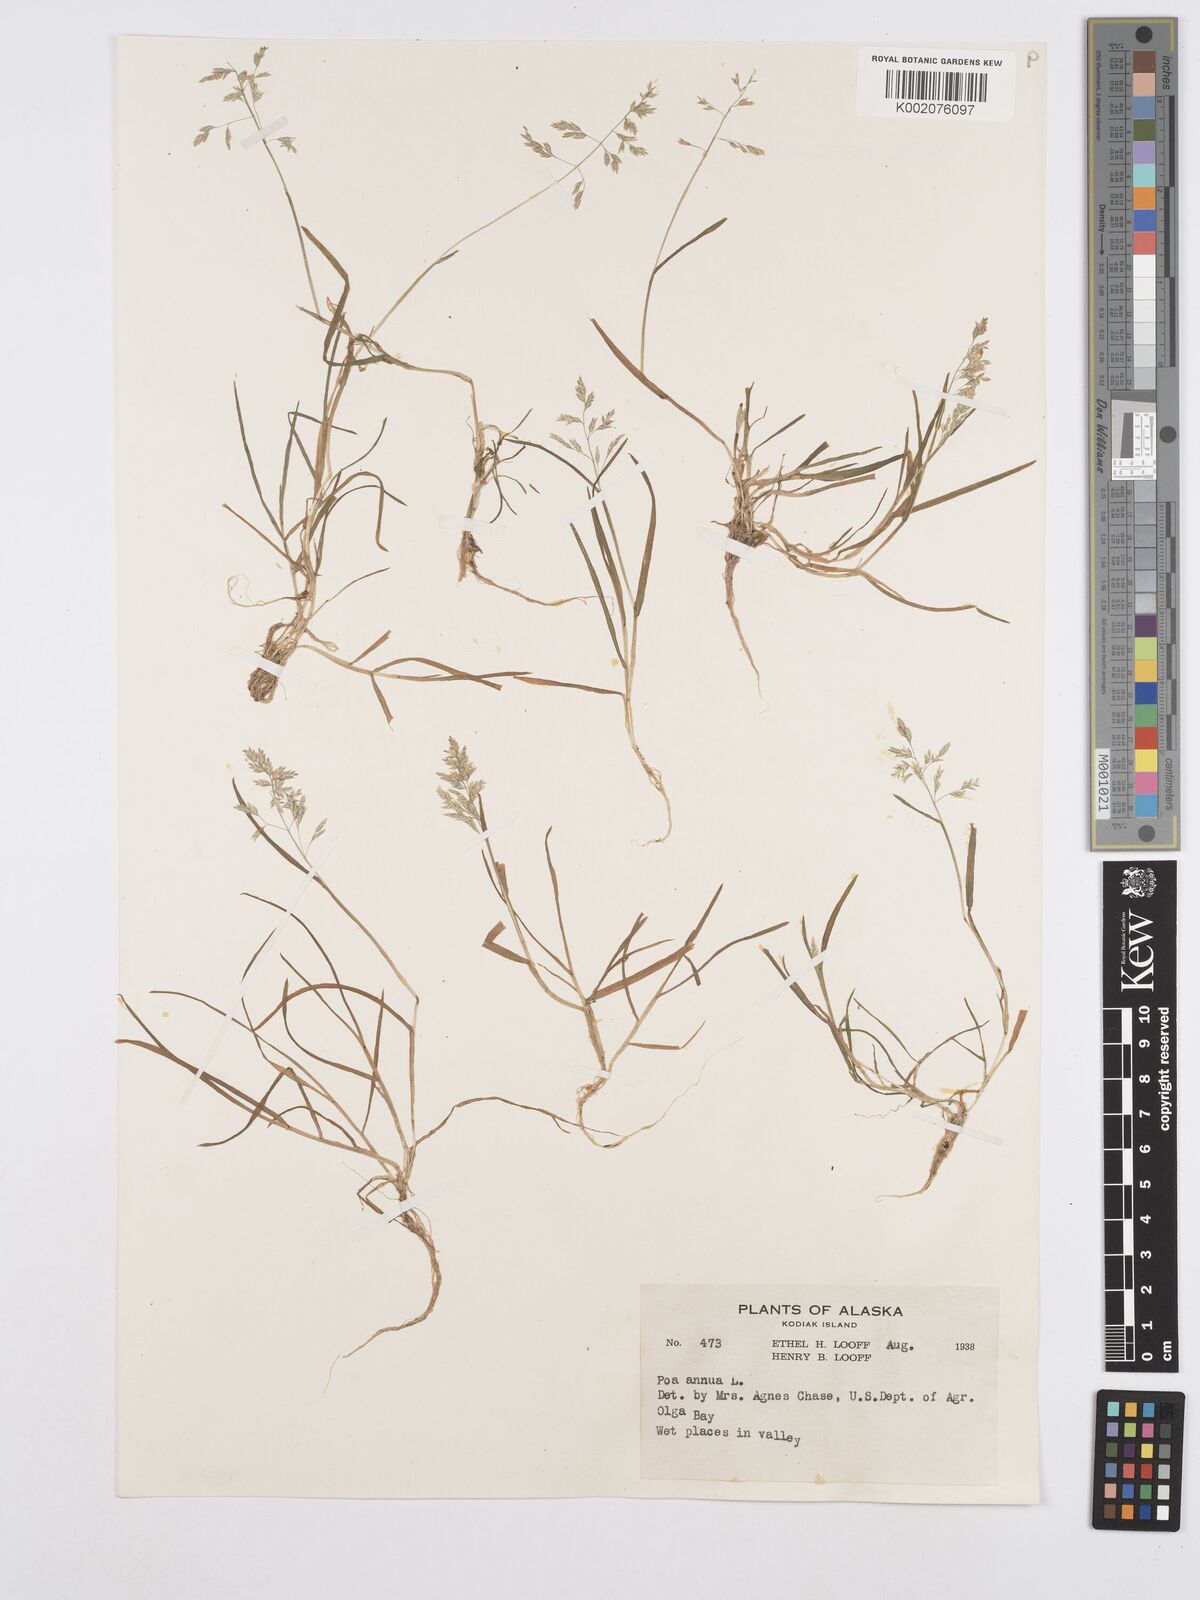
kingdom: Plantae
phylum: Tracheophyta
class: Liliopsida
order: Poales
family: Poaceae
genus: Poa
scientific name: Poa annua
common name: Annual bluegrass
